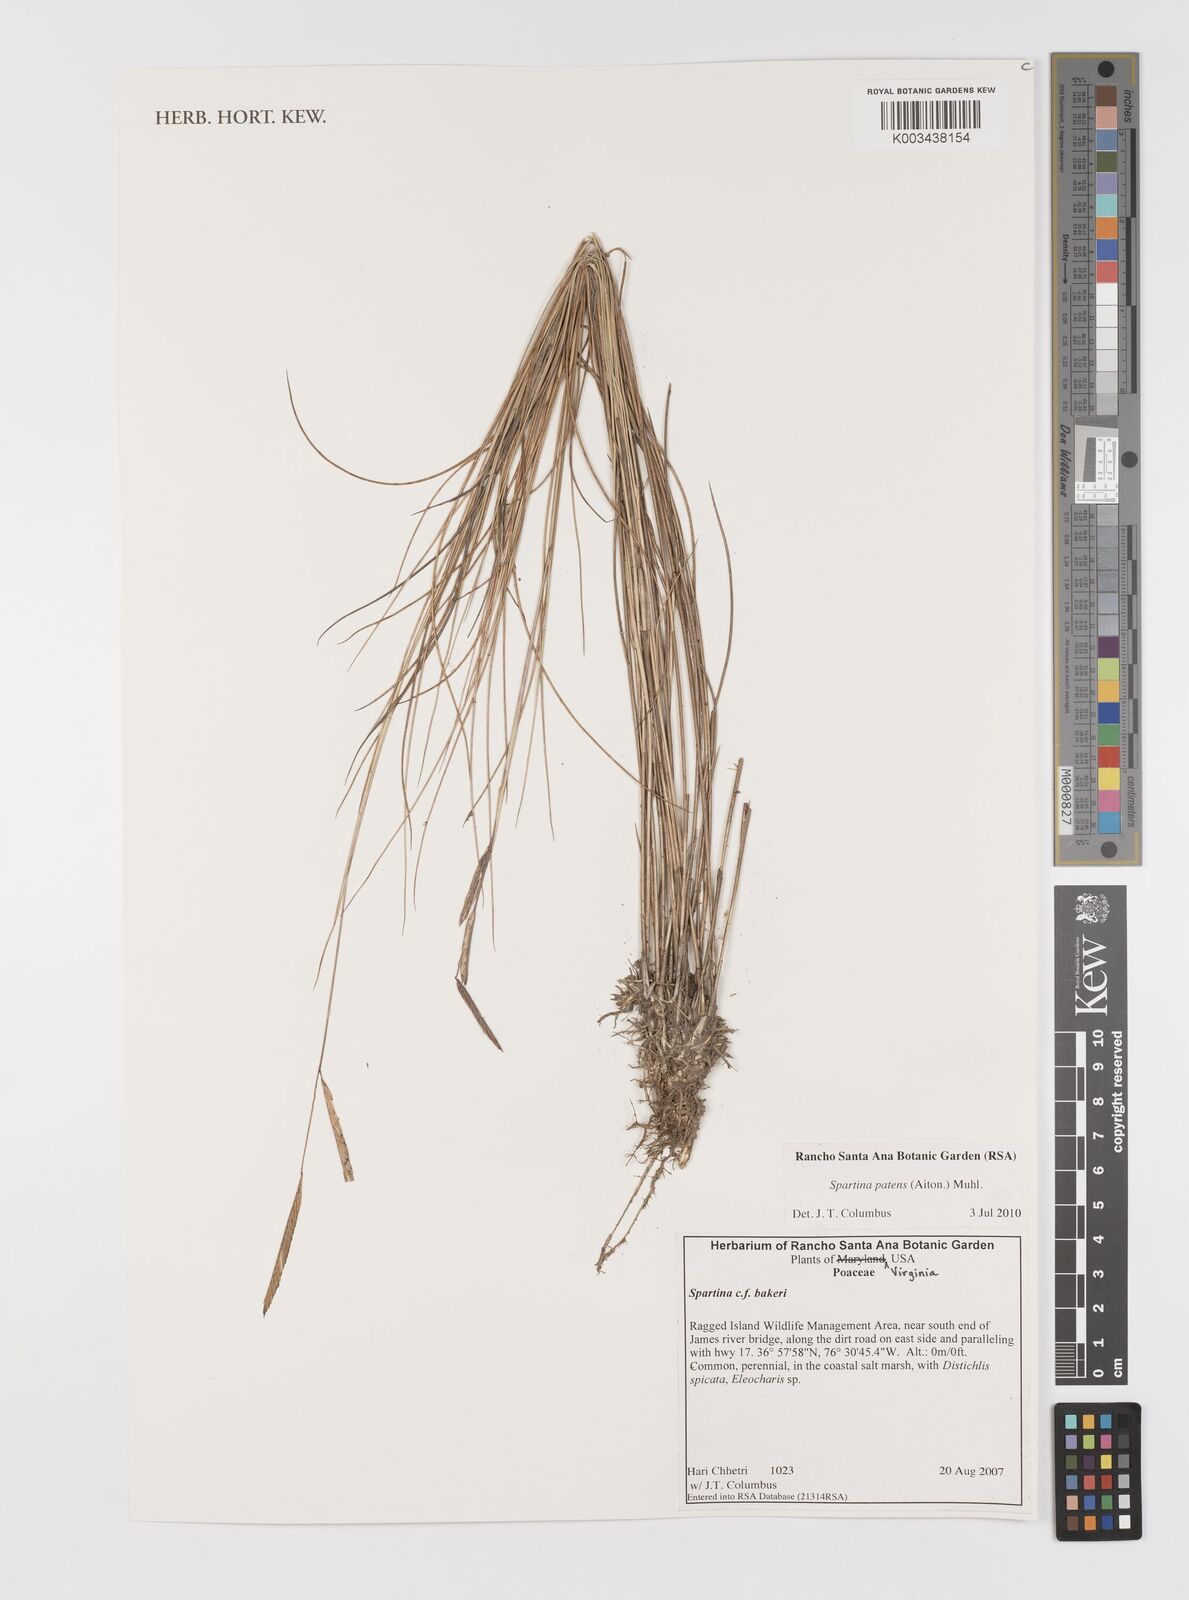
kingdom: Plantae
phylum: Tracheophyta
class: Liliopsida
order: Poales
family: Poaceae
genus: Sporobolus
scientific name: Sporobolus pumilus
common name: Highwater grass
